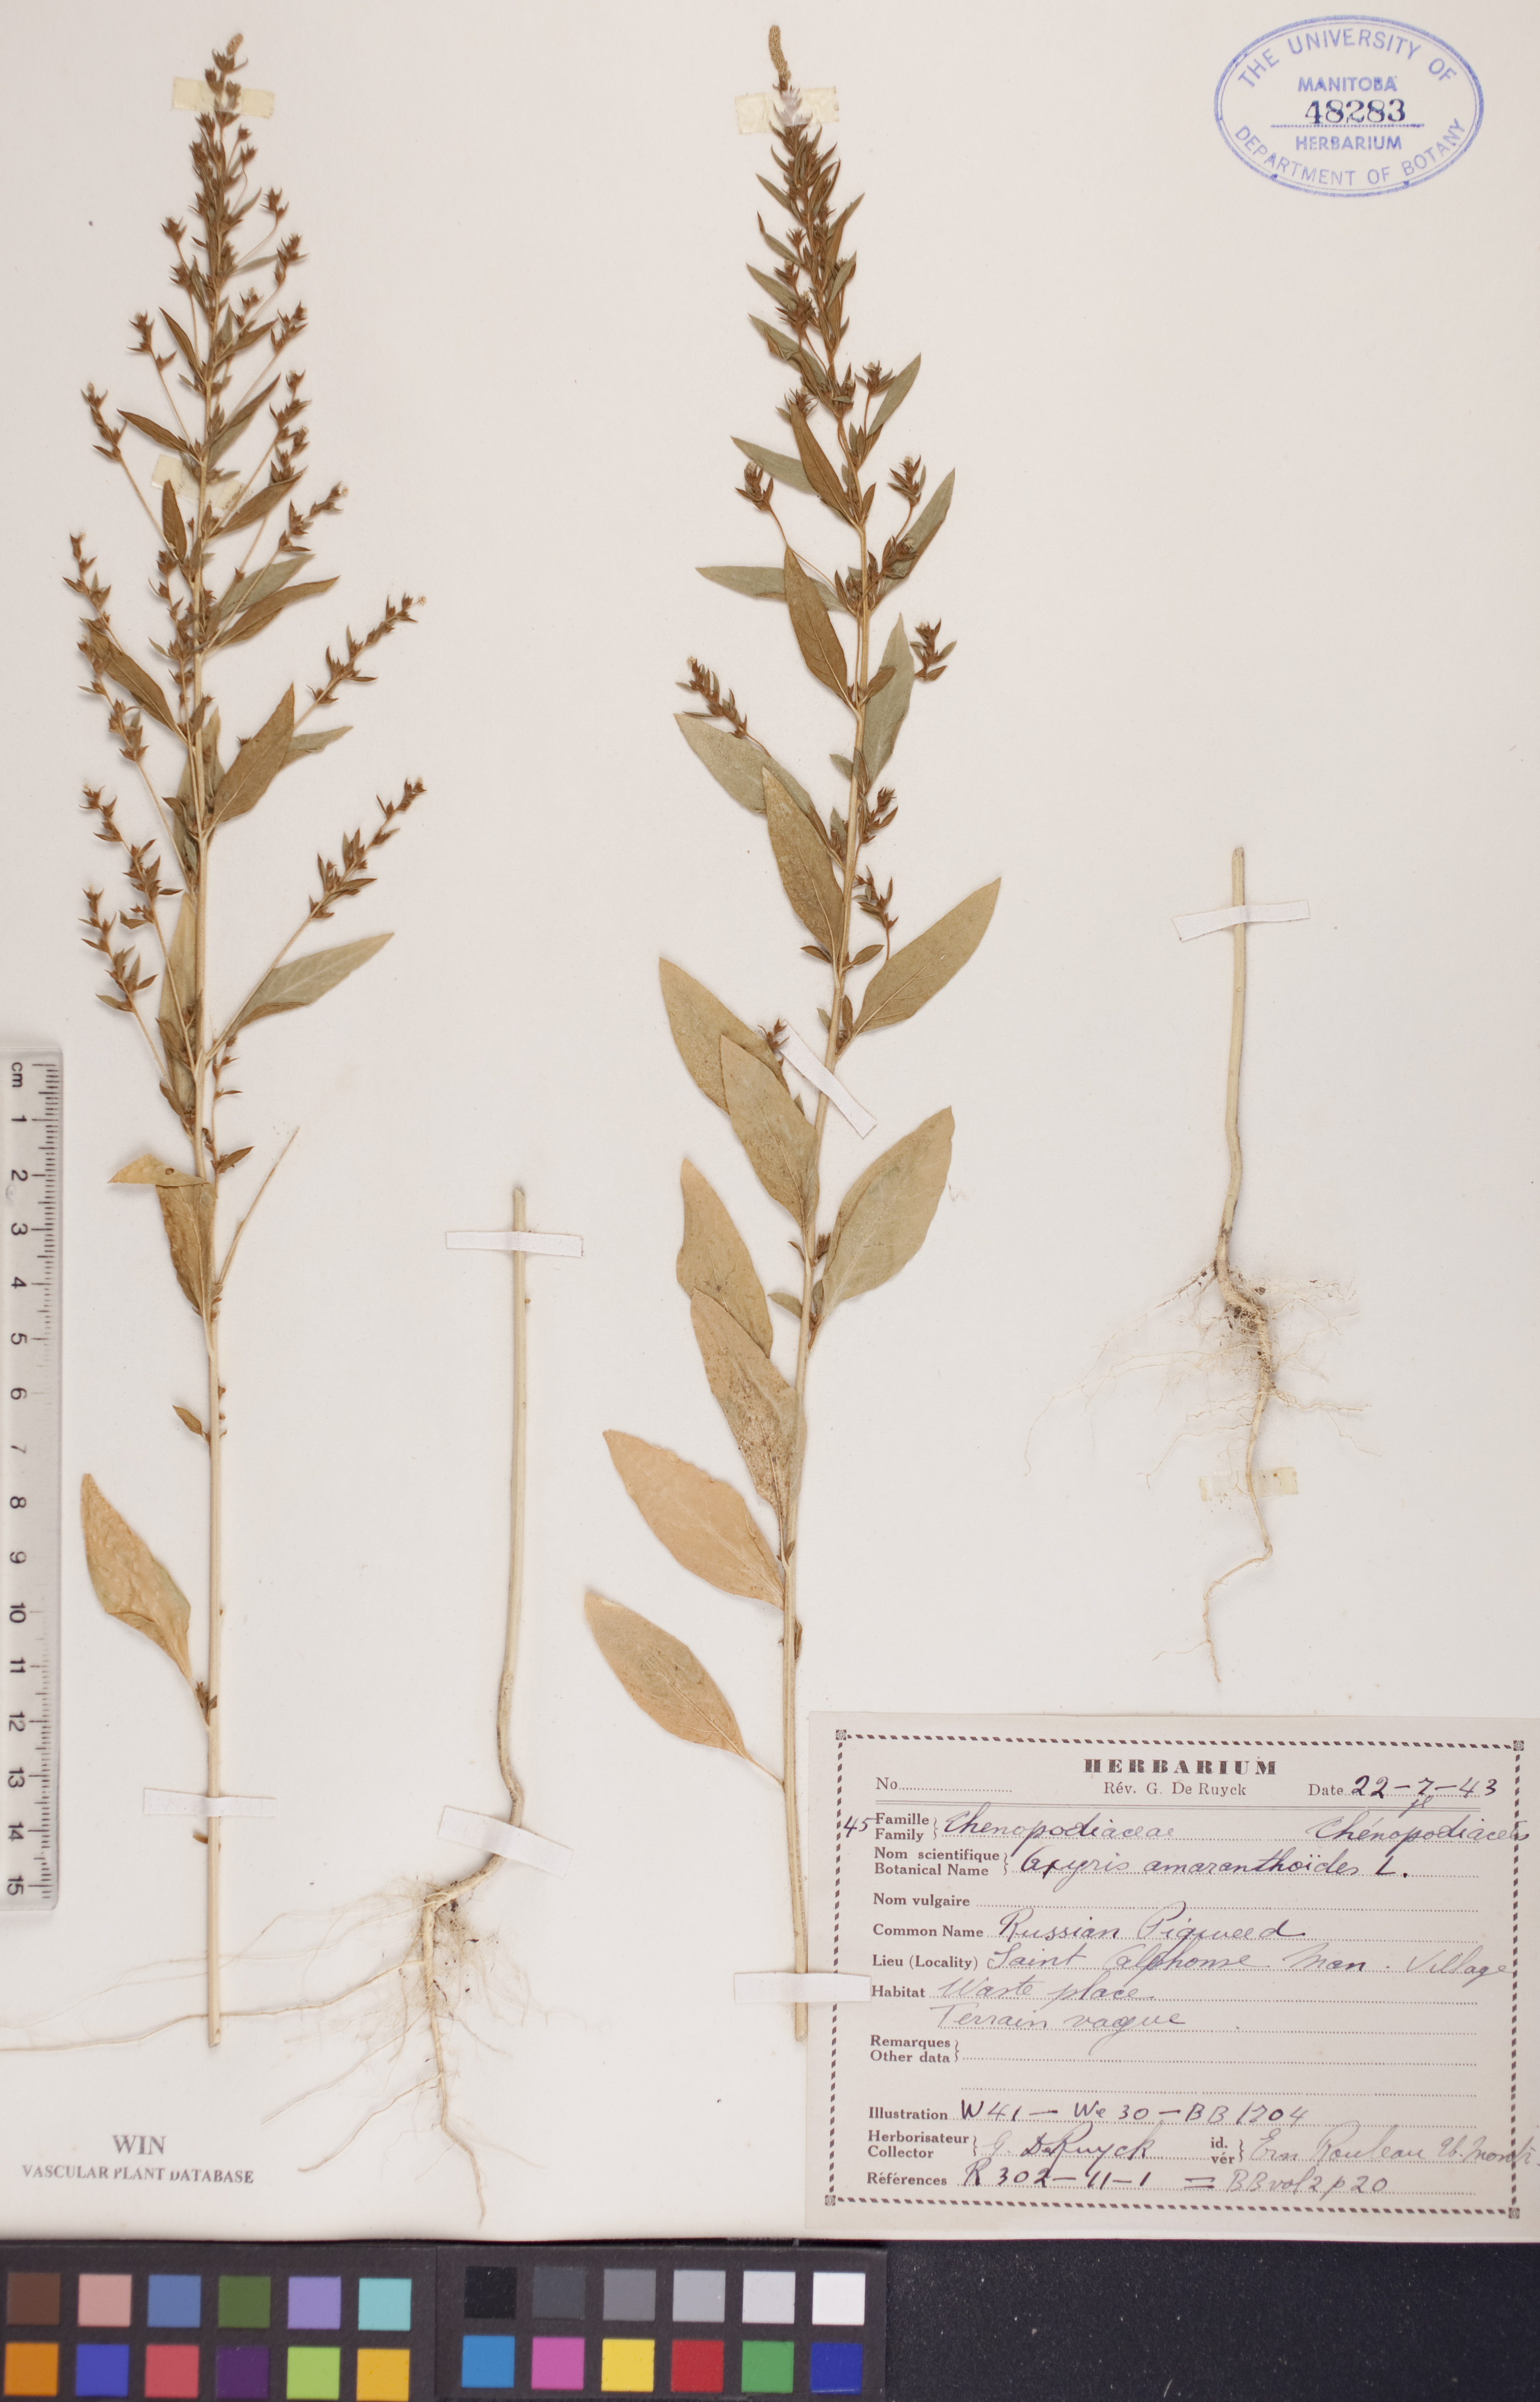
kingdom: Plantae
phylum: Tracheophyta
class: Magnoliopsida
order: Caryophyllales
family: Amaranthaceae
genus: Axyris
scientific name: Axyris amaranthoides
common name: Russian pigweed
